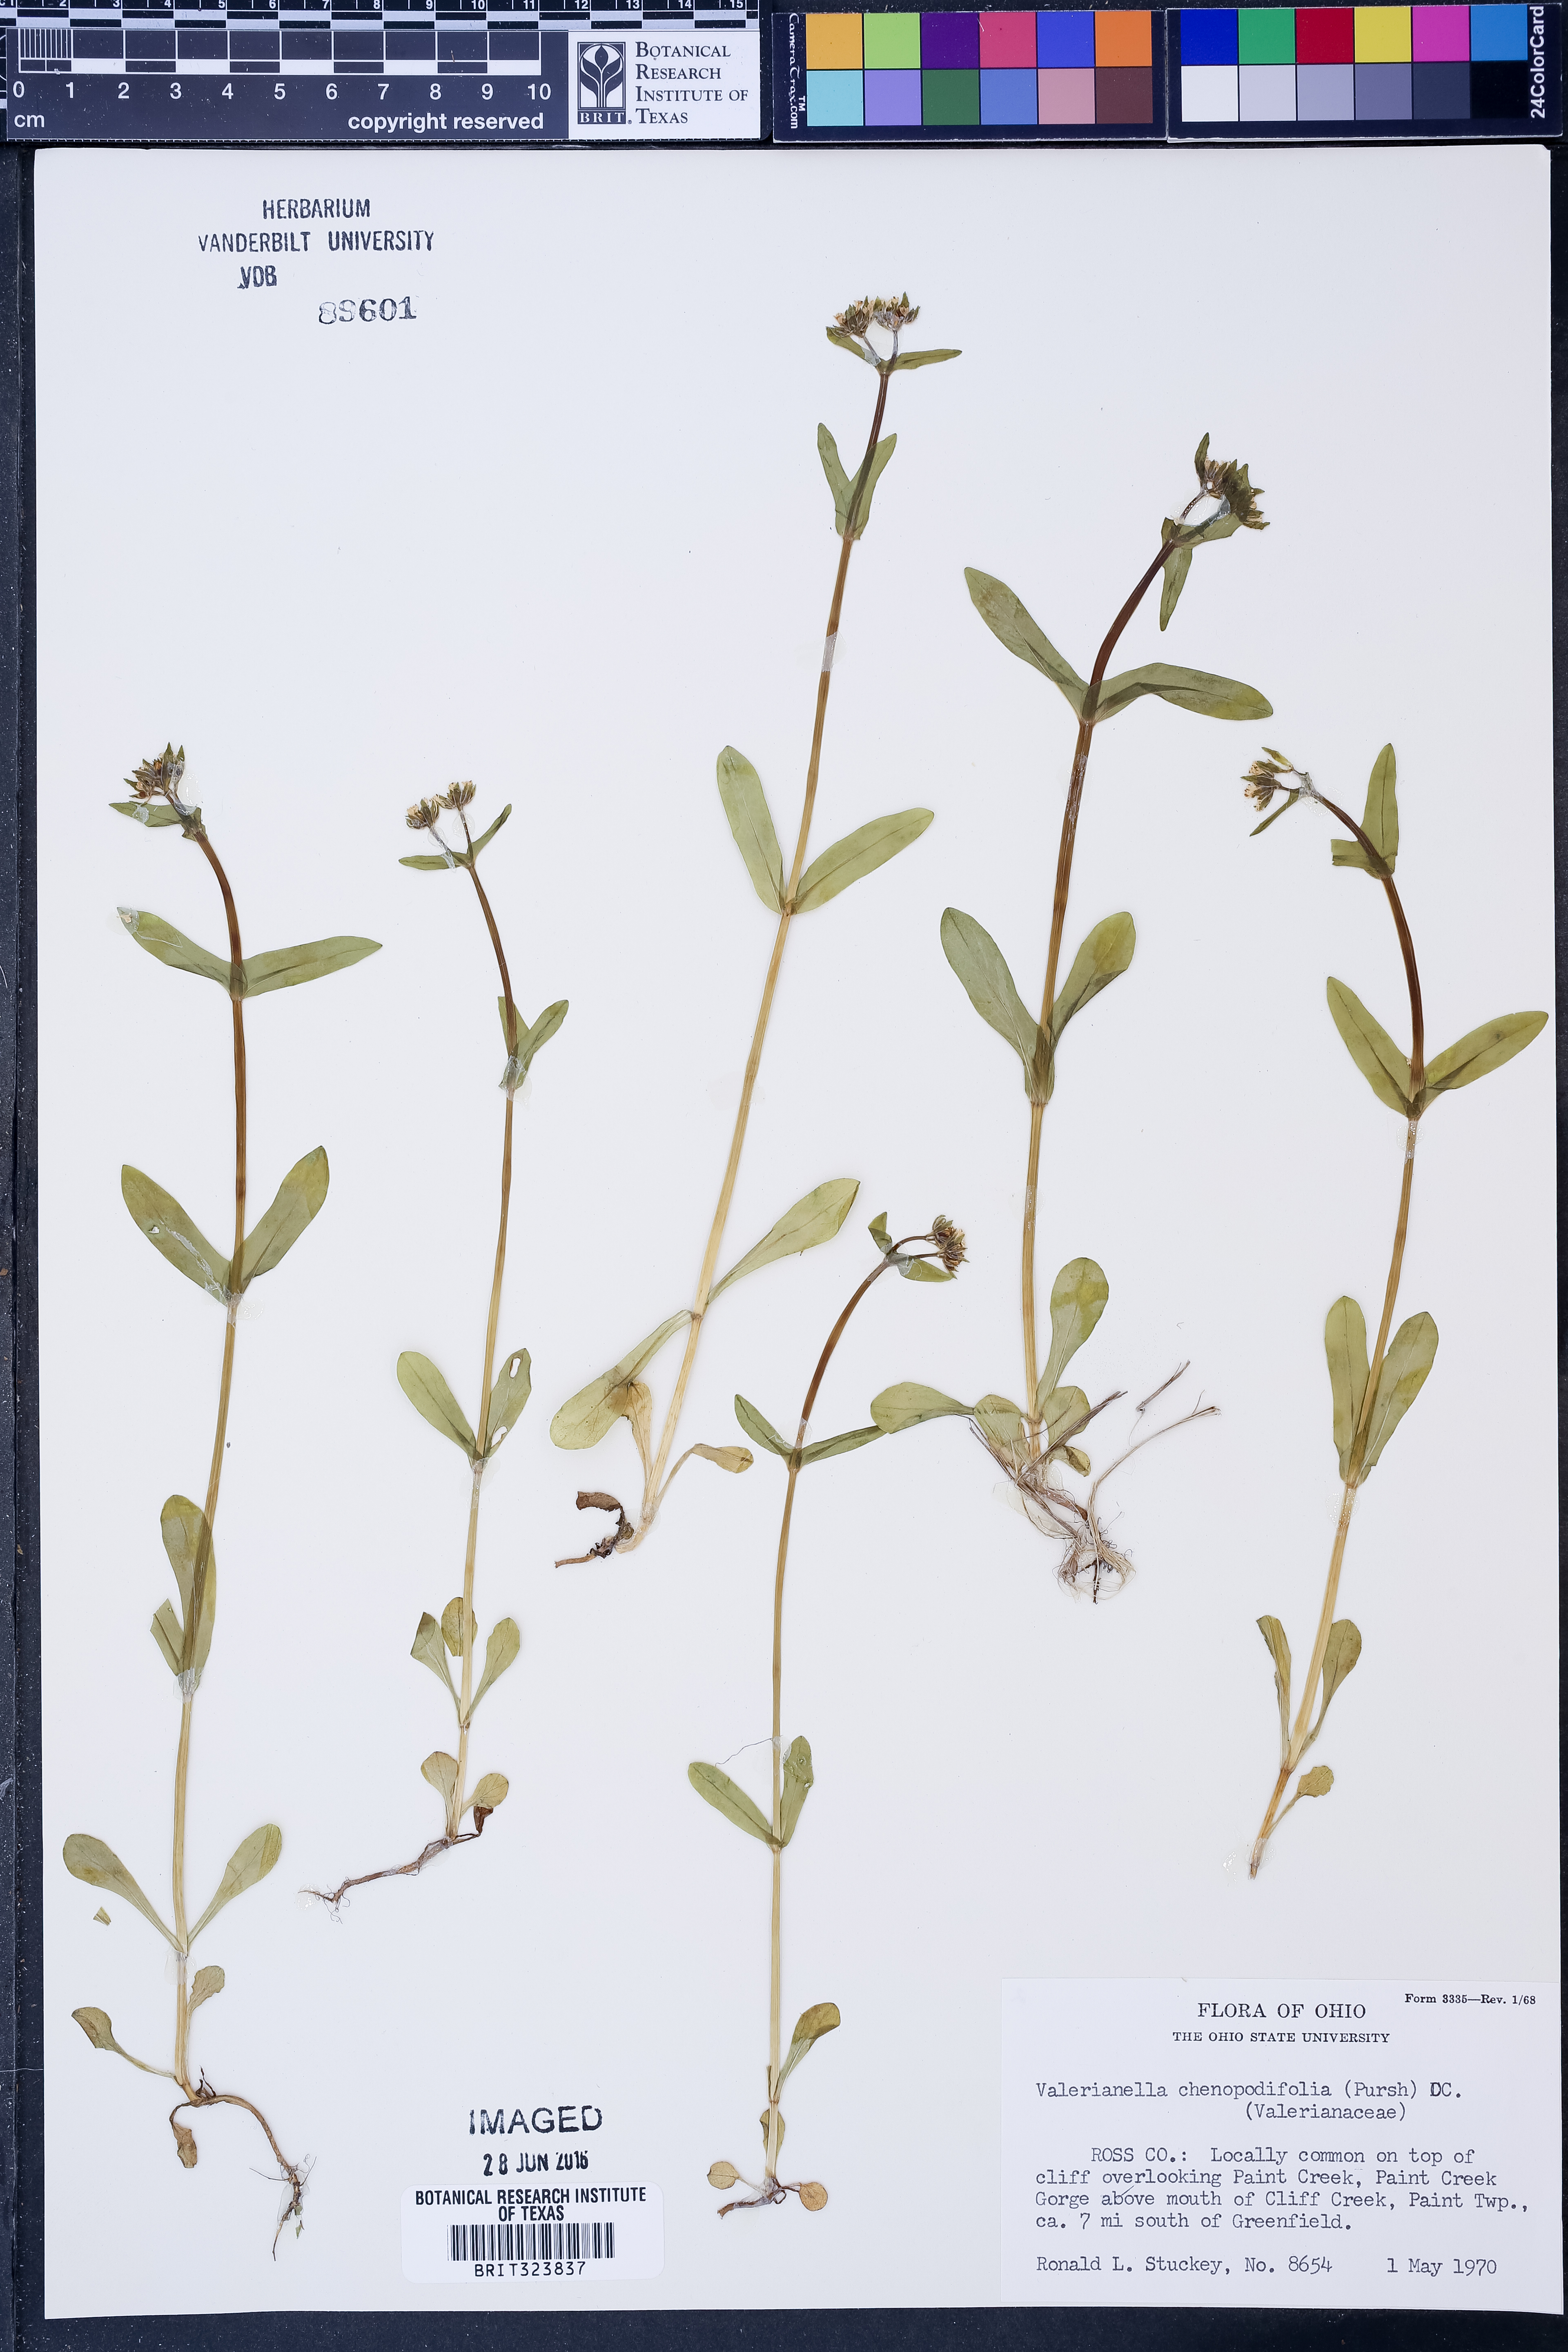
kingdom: Plantae
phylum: Tracheophyta
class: Magnoliopsida
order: Dipsacales
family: Caprifoliaceae
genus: Valerianella
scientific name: Valerianella chenopodiifolia
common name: Goosefoot cornsalad
